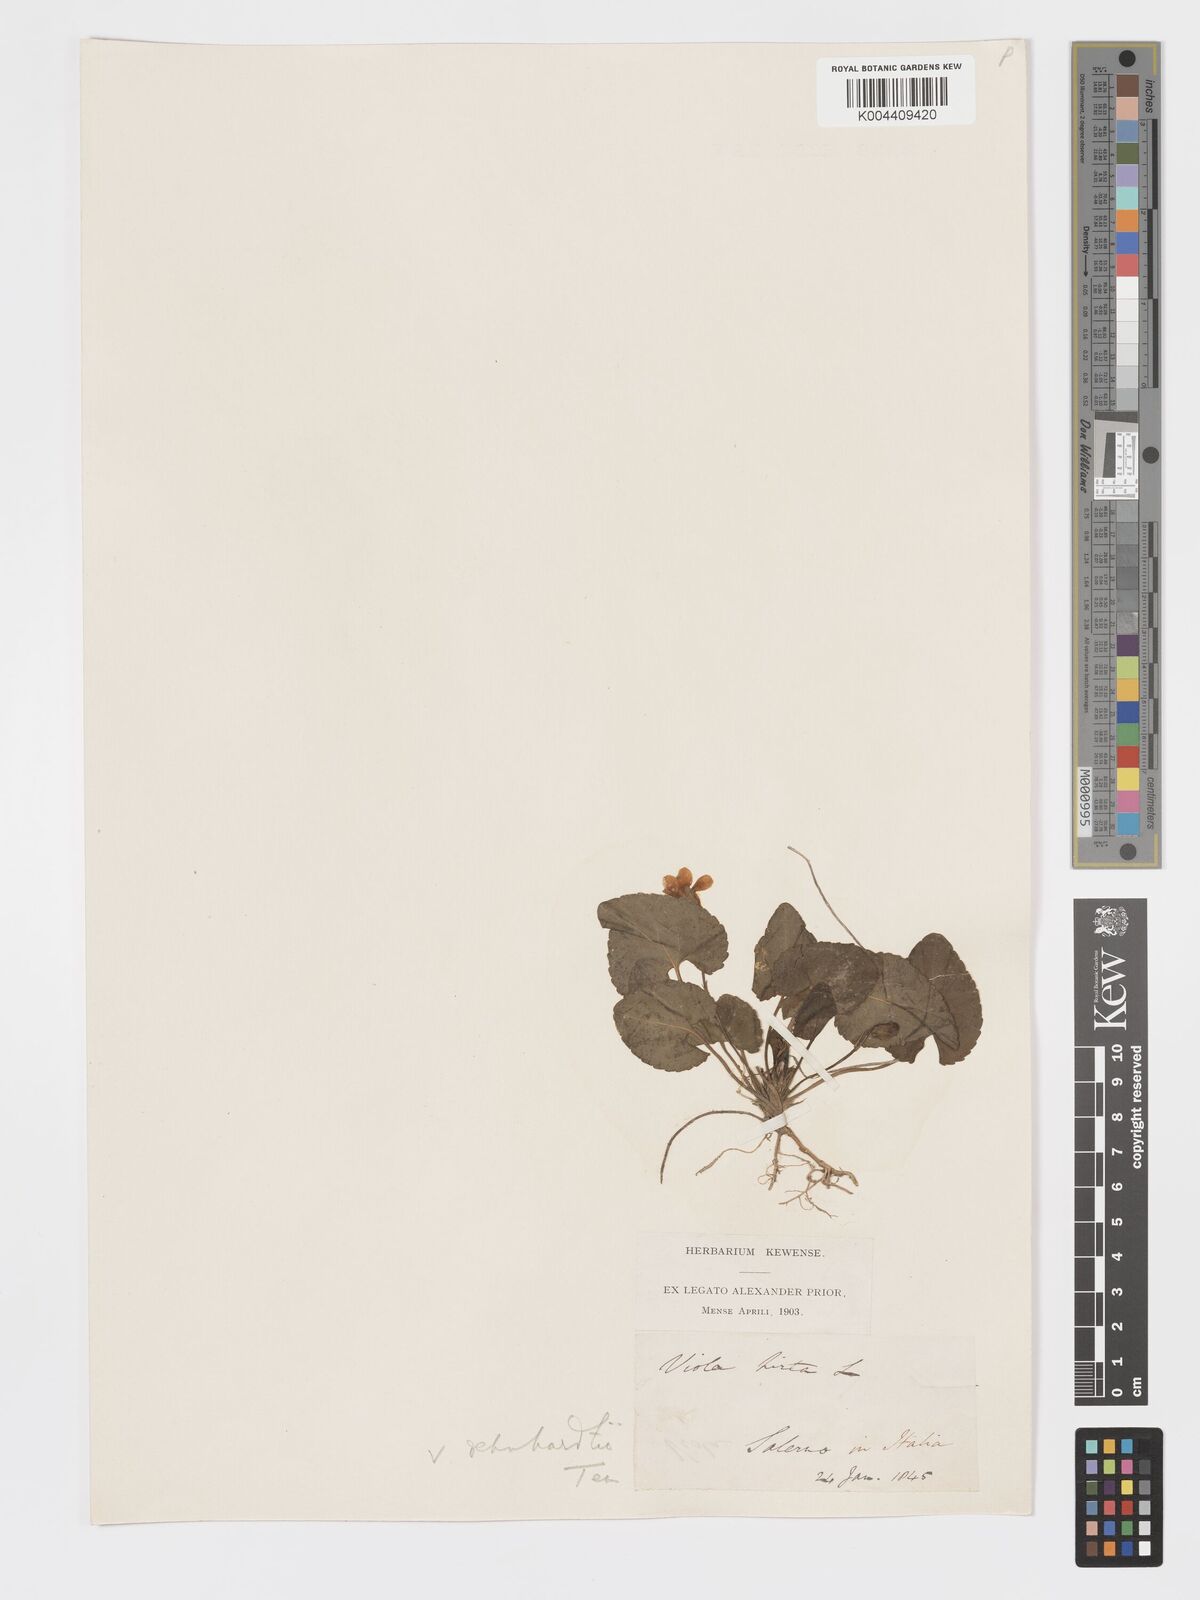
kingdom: Plantae
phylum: Tracheophyta
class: Magnoliopsida
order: Malpighiales
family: Violaceae
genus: Viola
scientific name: Viola alba
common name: White violet
